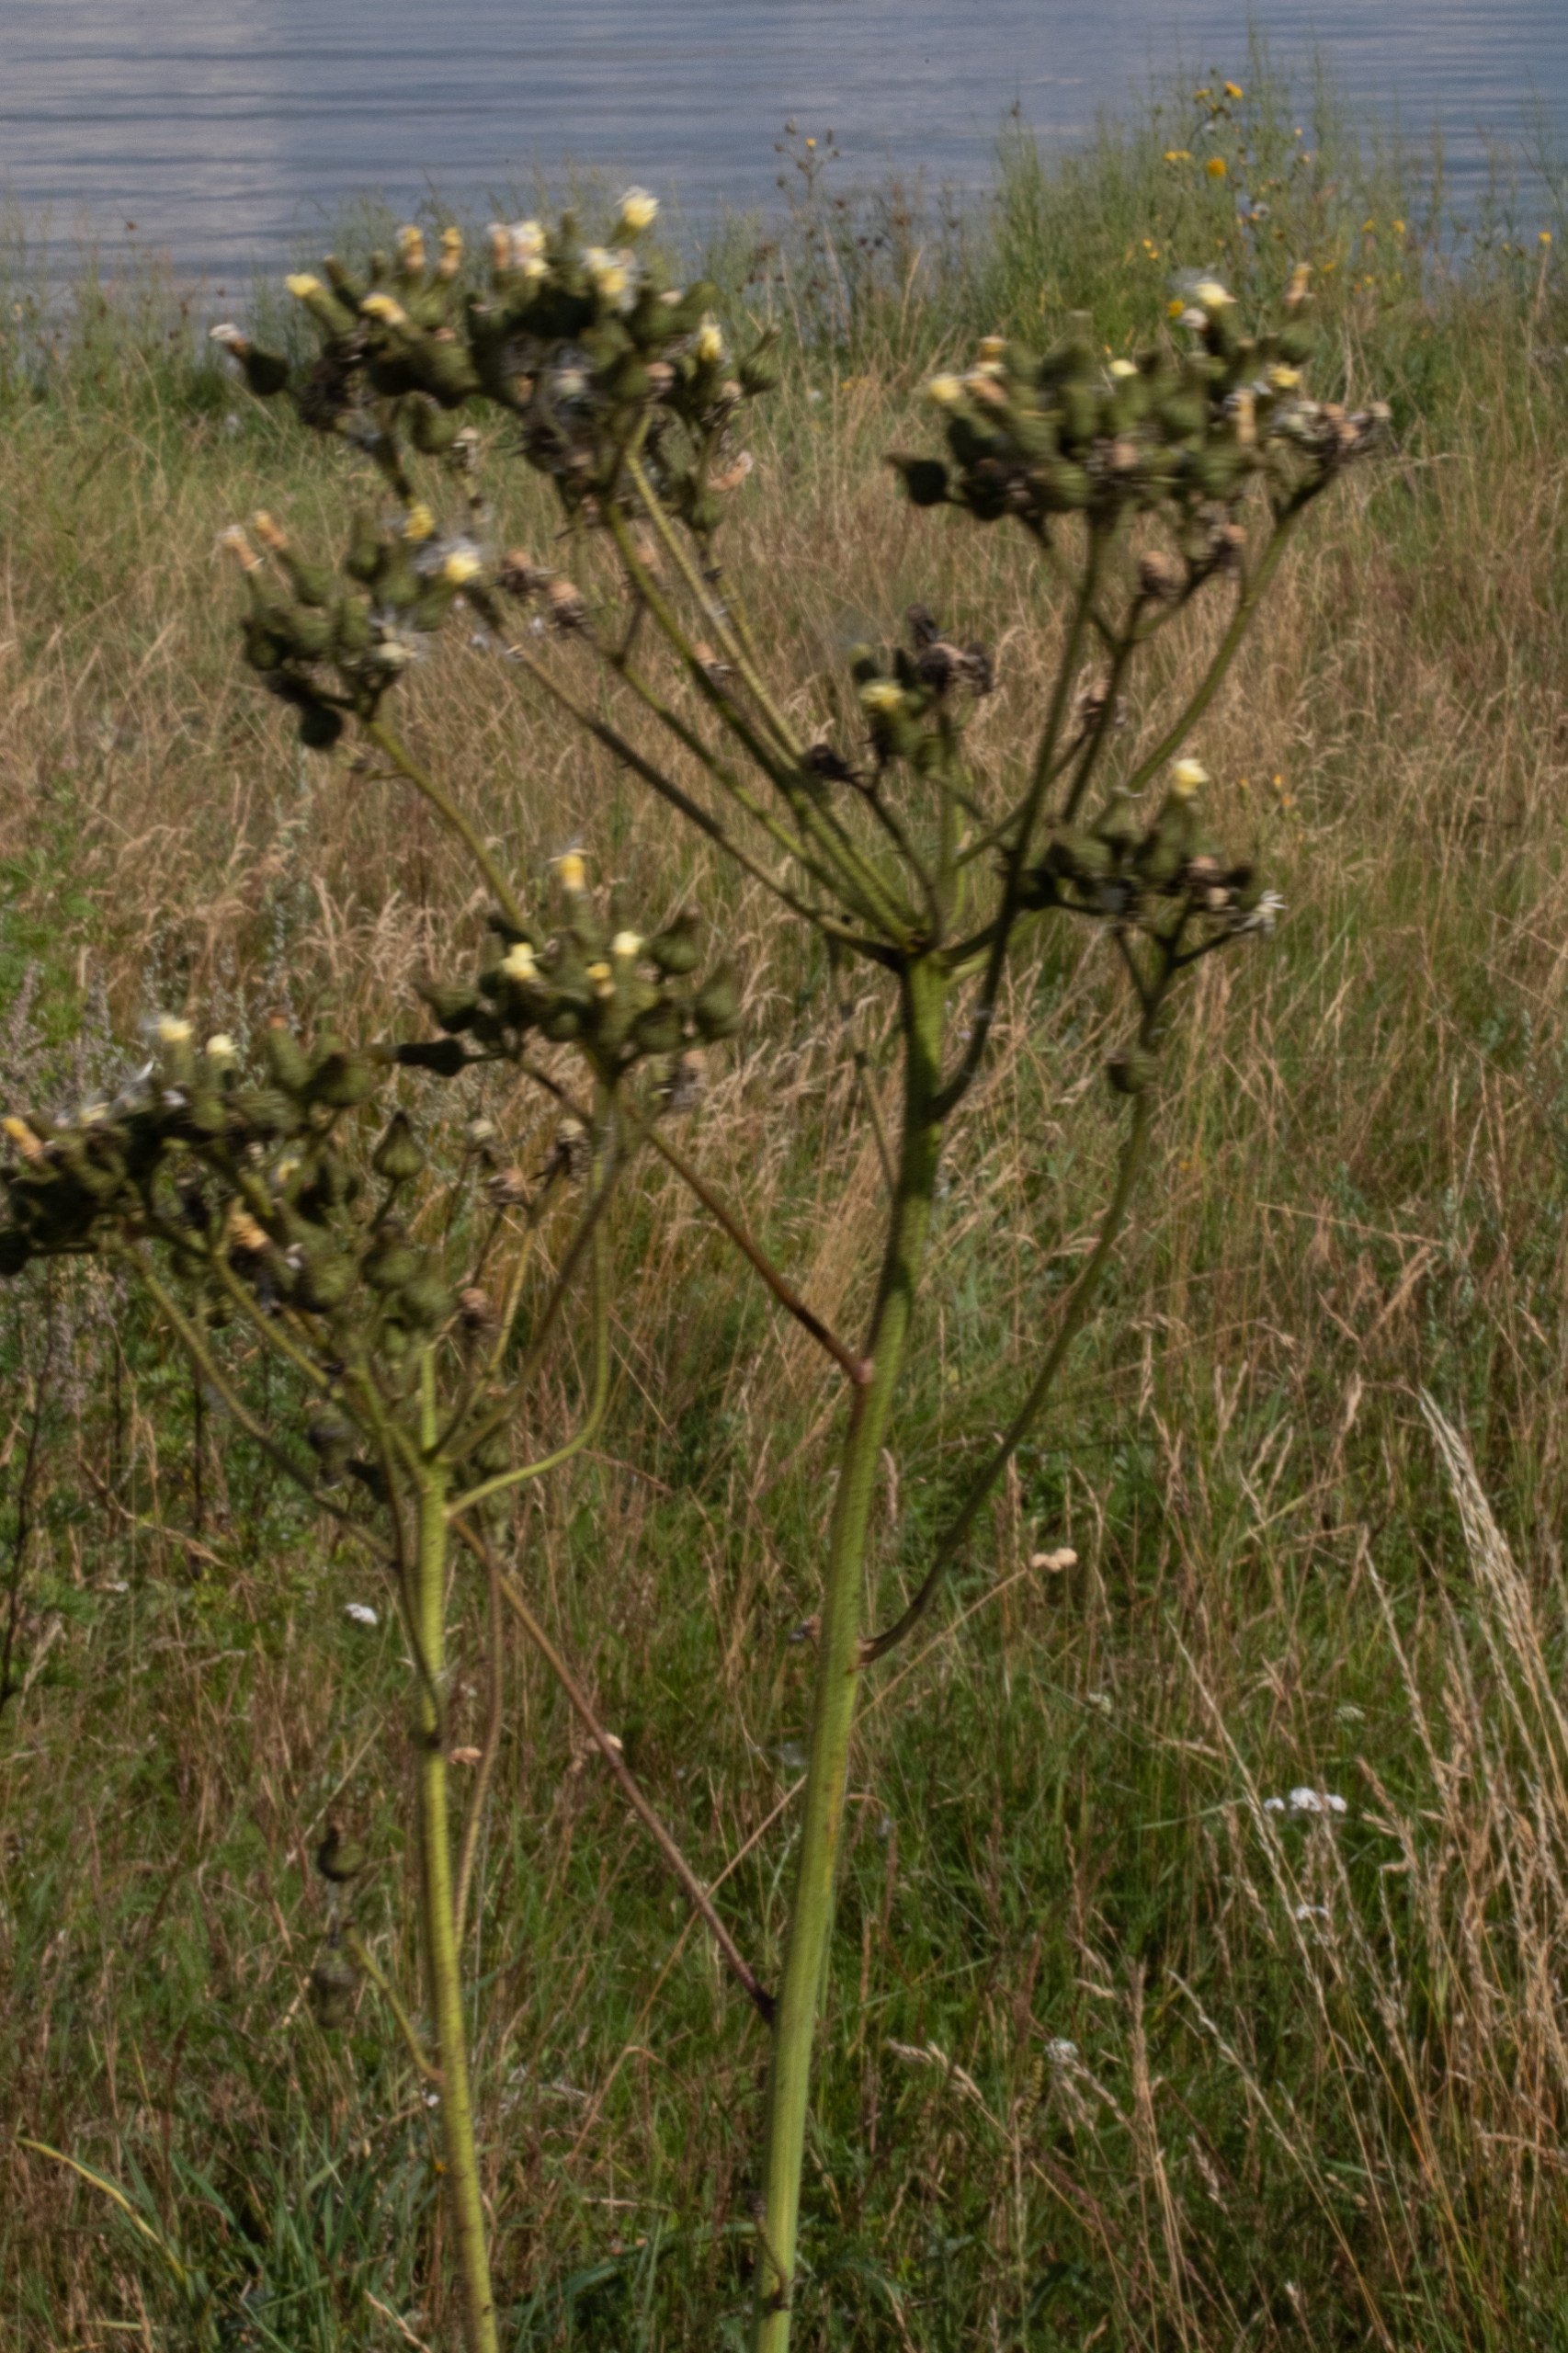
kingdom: Plantae
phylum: Tracheophyta
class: Magnoliopsida
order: Asterales
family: Asteraceae
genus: Sonchus
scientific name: Sonchus palustris
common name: Kær-svinemælk
